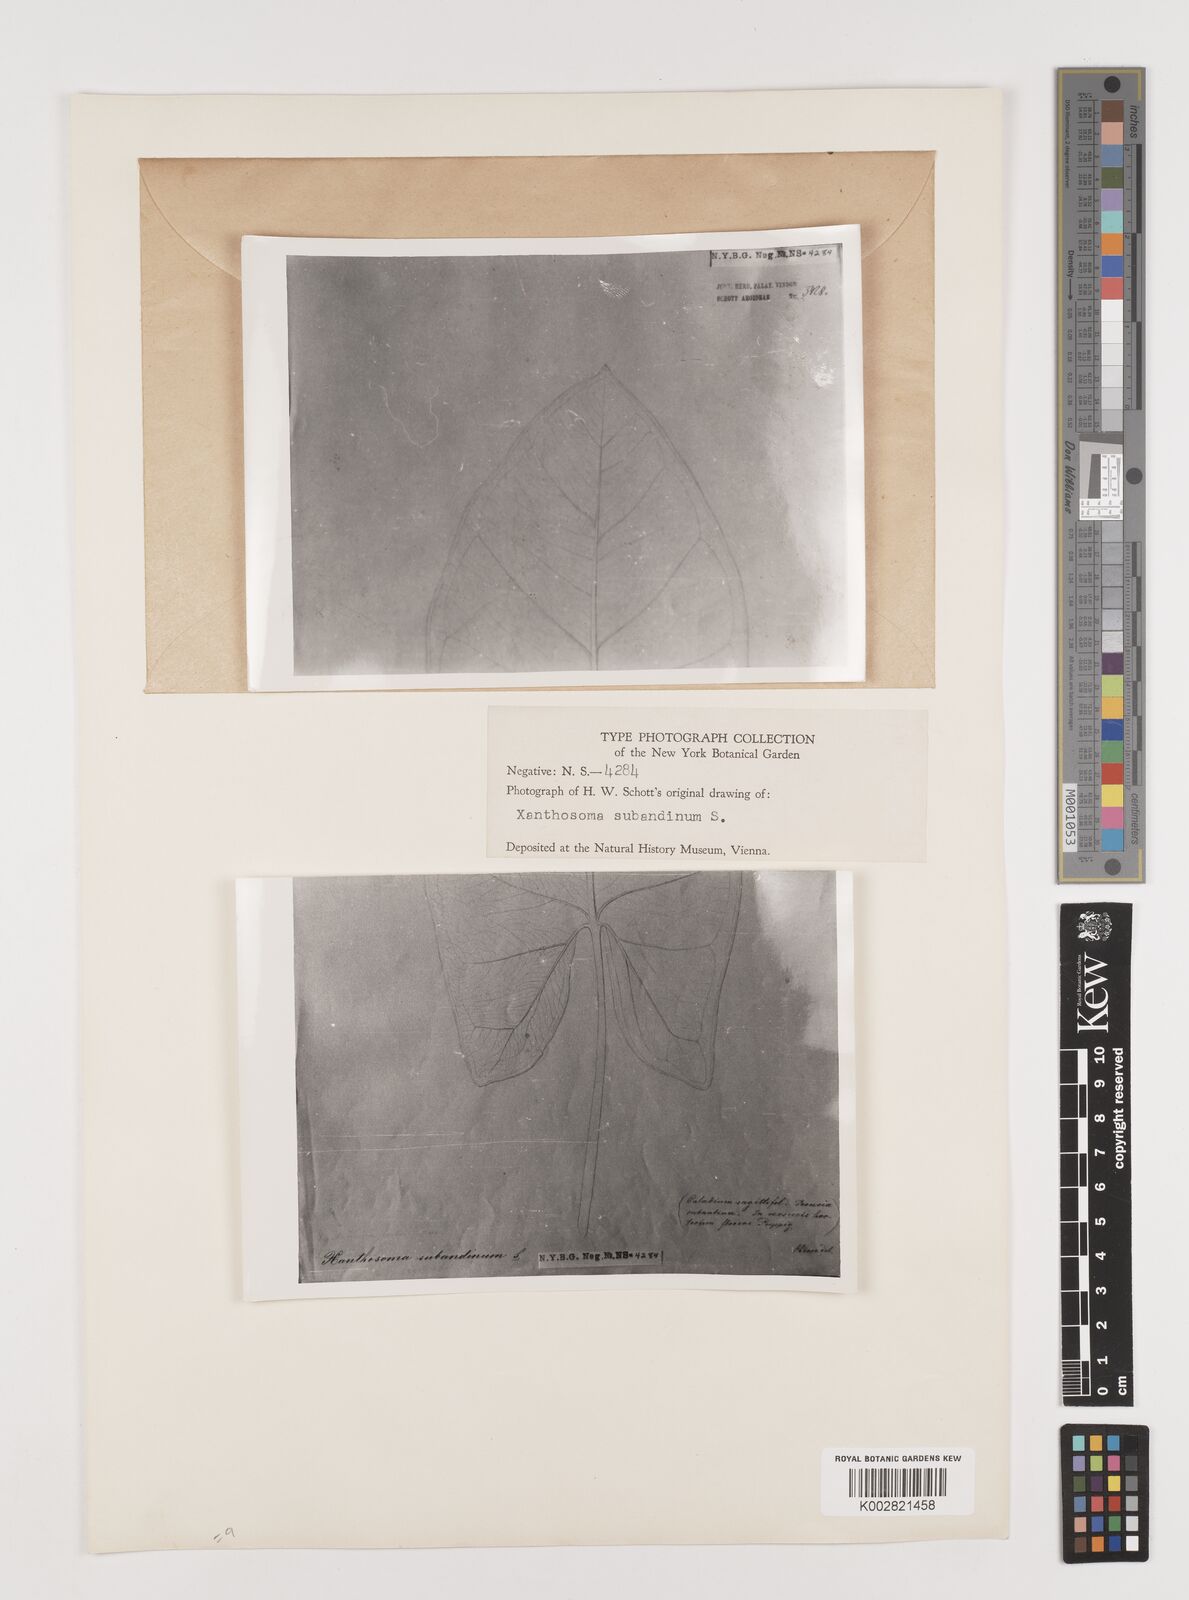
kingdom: Plantae
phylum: Tracheophyta
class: Liliopsida
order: Alismatales
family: Araceae
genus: Xanthosoma
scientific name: Xanthosoma poeppigii
